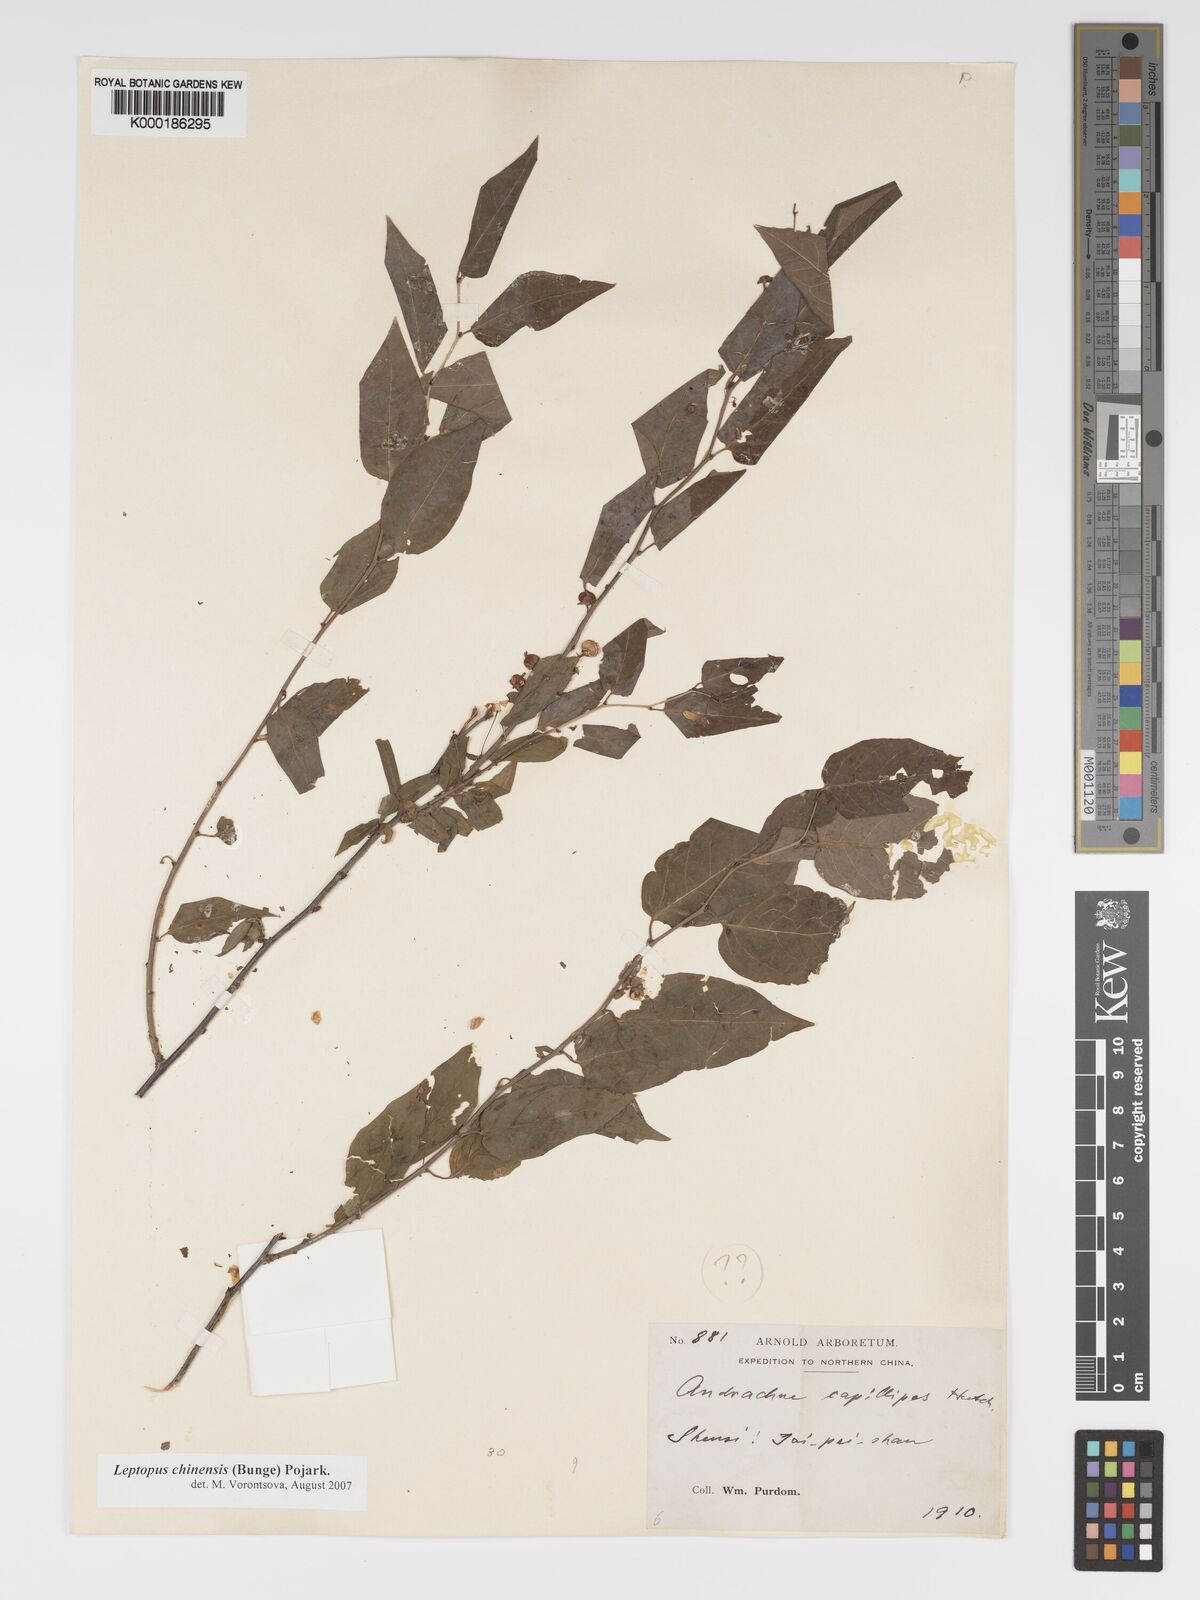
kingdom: Plantae
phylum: Tracheophyta
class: Magnoliopsida
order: Malpighiales
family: Phyllanthaceae
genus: Leptopus
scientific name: Leptopus chinensis
